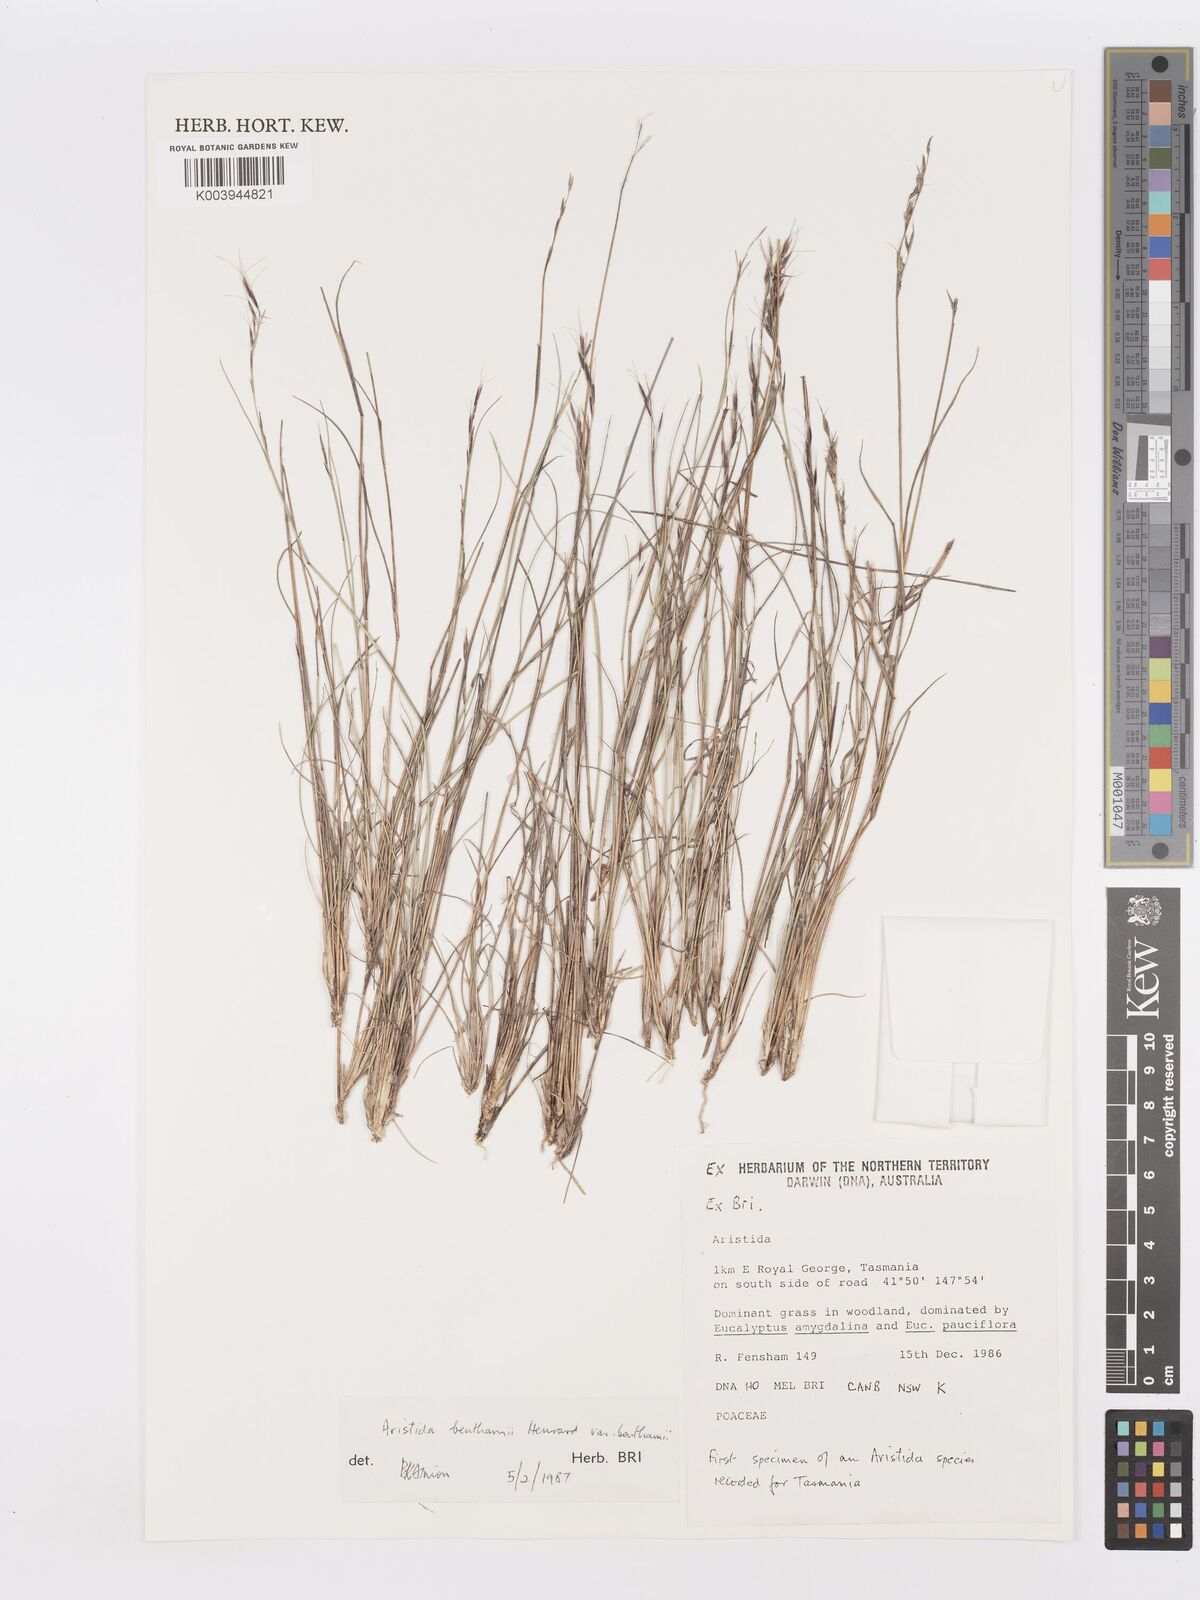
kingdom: Plantae
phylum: Tracheophyta
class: Liliopsida
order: Poales
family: Poaceae
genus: Aristida
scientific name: Aristida benthamii
